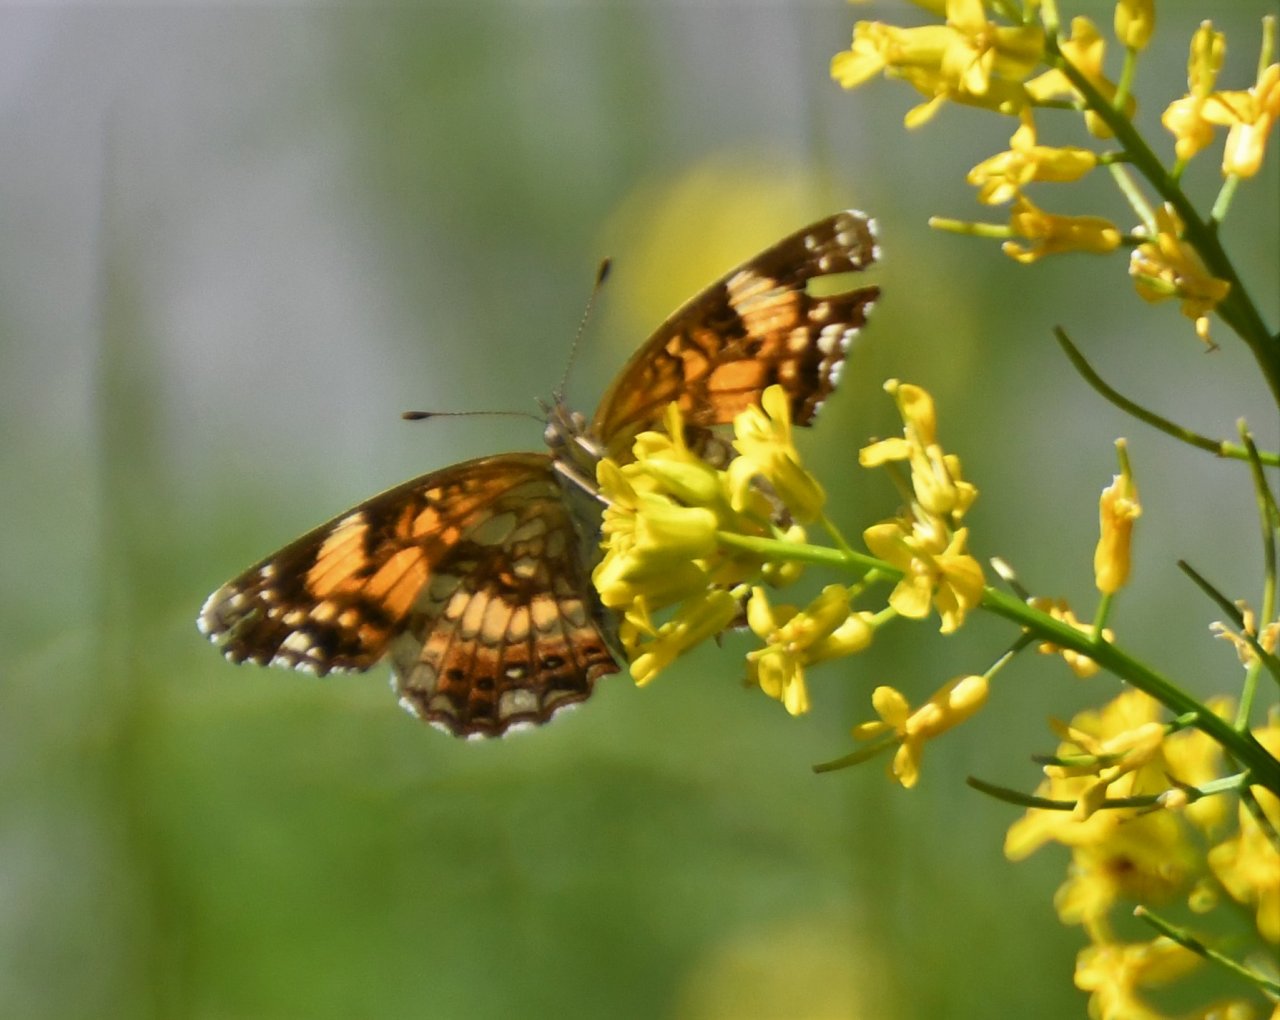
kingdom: Animalia
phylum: Arthropoda
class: Insecta
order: Lepidoptera
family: Nymphalidae
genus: Chlosyne
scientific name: Chlosyne nycteis
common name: Silvery Checkerspot
